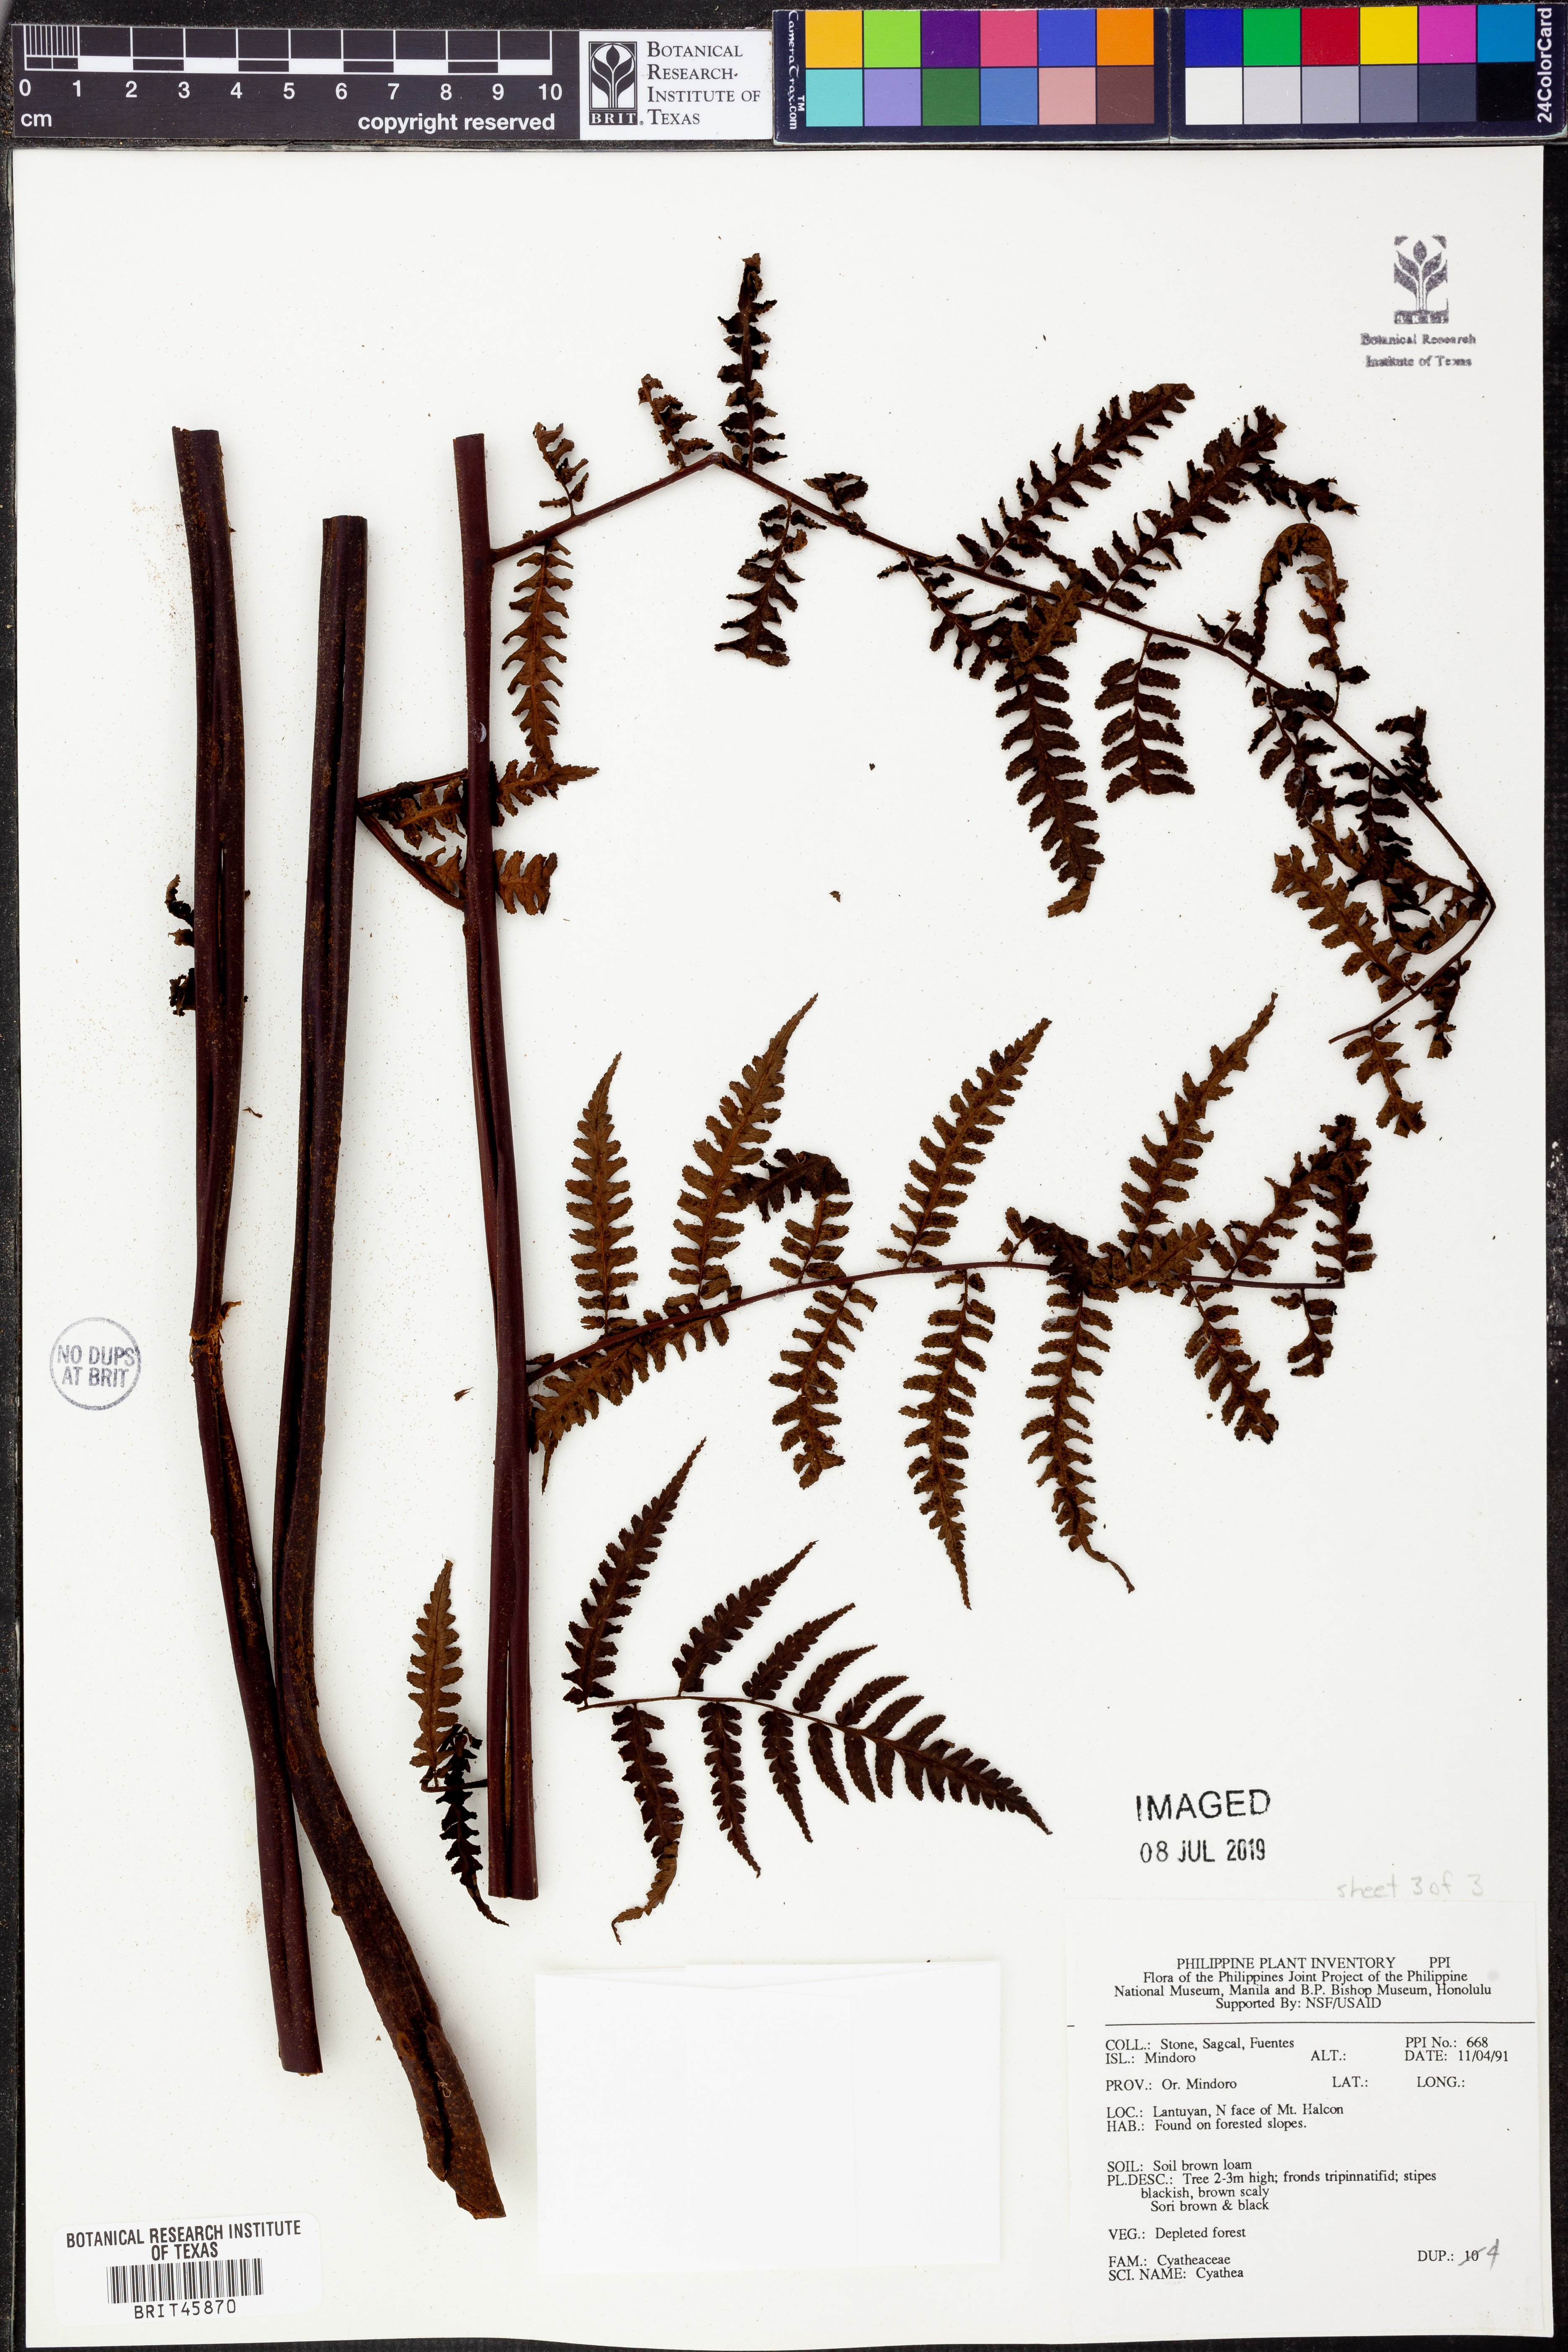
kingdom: Plantae
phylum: Tracheophyta
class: Polypodiopsida
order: Cyatheales
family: Cyatheaceae
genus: Cyathea
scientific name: Cyathea
